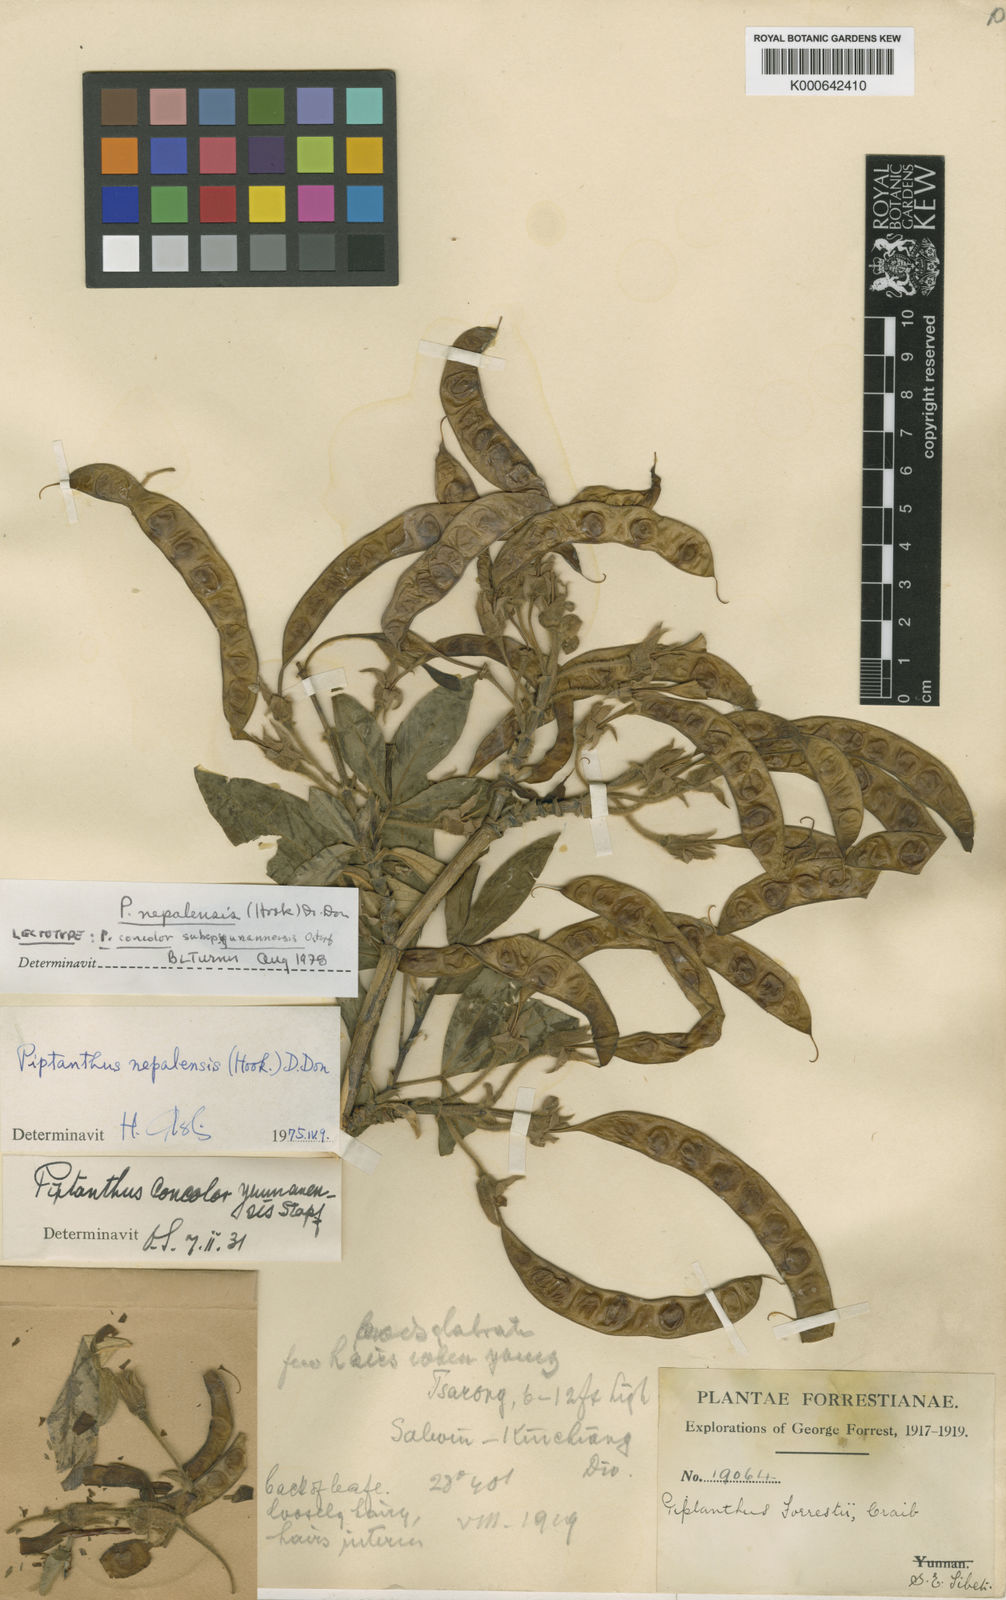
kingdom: Plantae
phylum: Tracheophyta
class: Magnoliopsida
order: Fabales
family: Fabaceae
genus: Piptanthus
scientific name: Piptanthus
